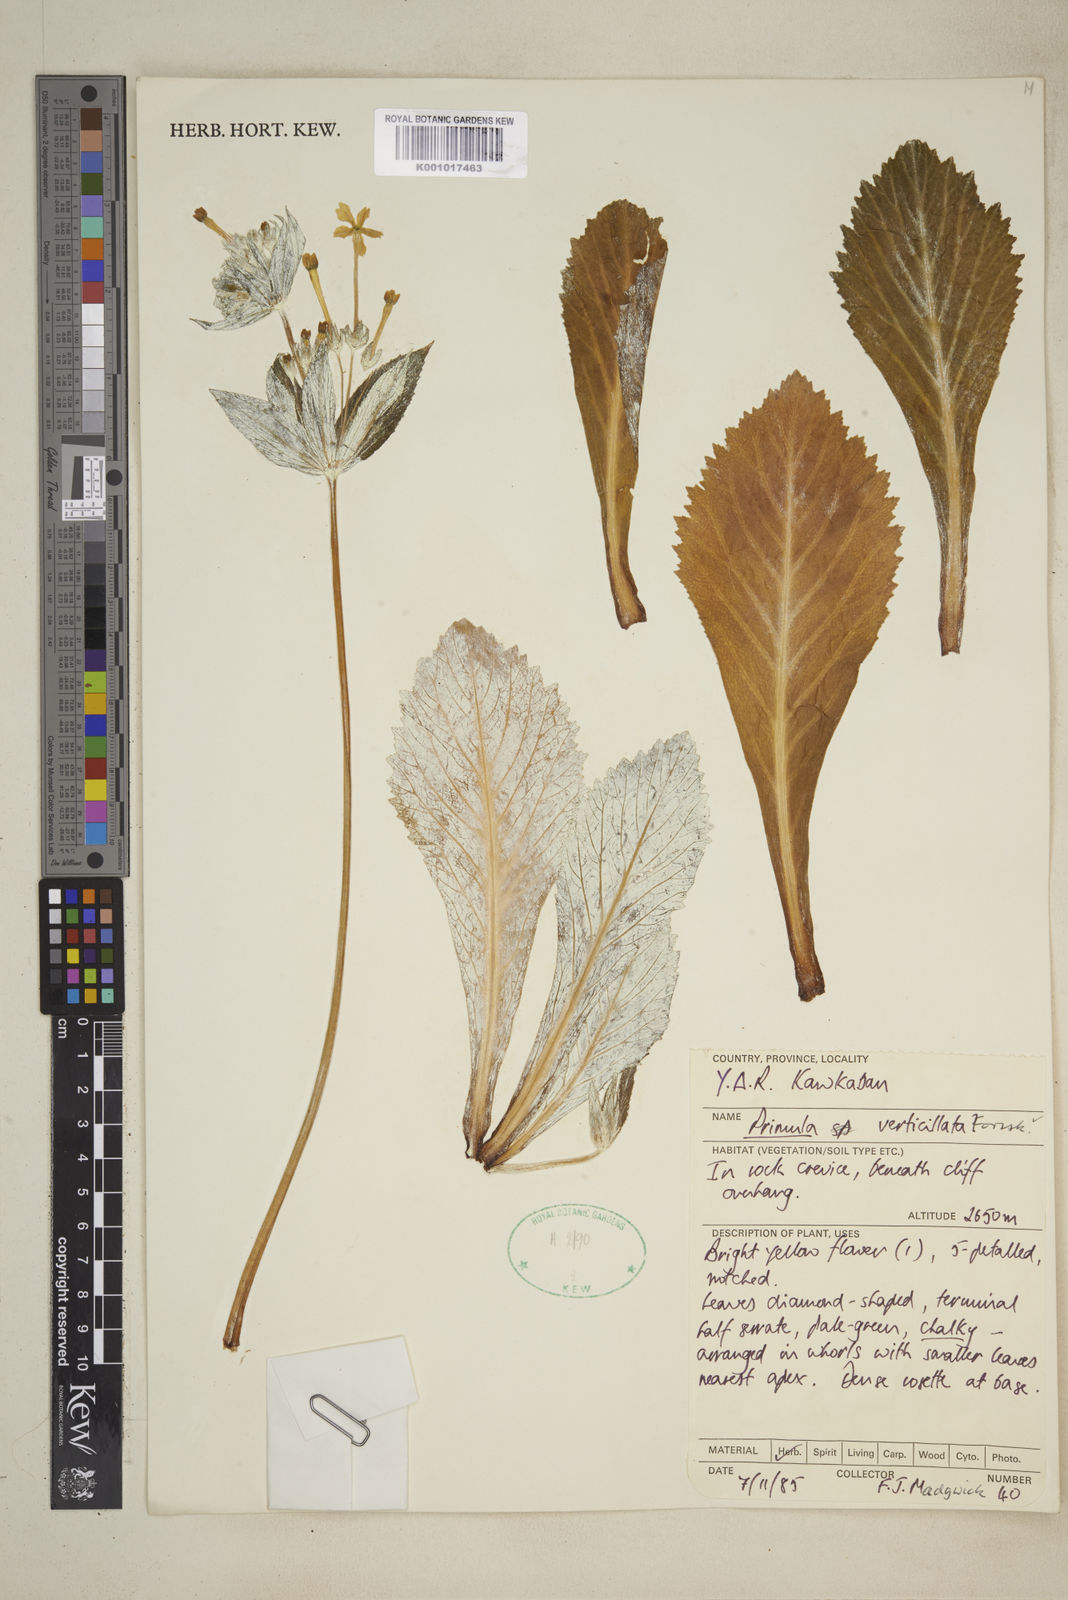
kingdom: Plantae
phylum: Tracheophyta
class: Magnoliopsida
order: Ericales
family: Primulaceae
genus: Evotrochis
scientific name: Evotrochis verticillata
